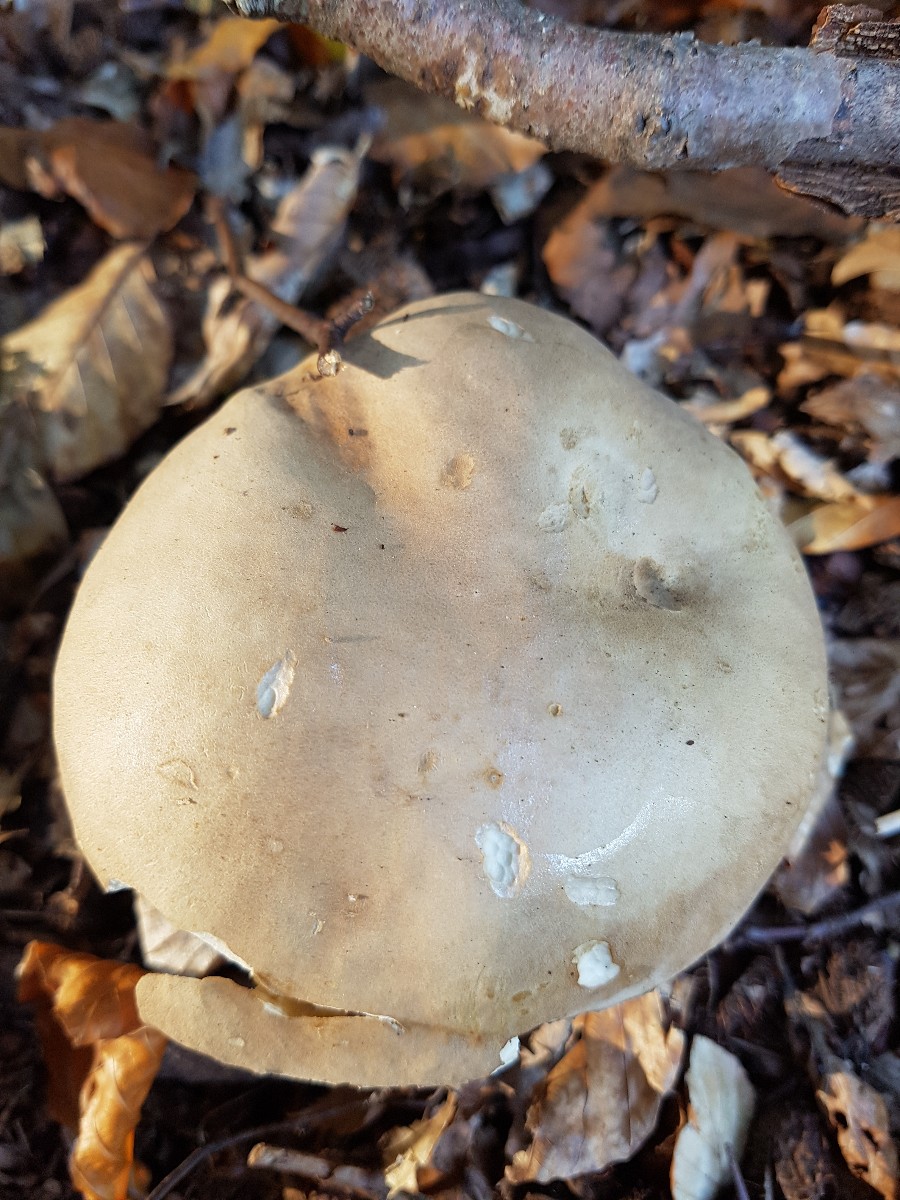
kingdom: Fungi
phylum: Basidiomycota
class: Agaricomycetes
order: Boletales
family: Boletaceae
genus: Boletus
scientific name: Boletus reticulatus
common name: sommer-rørhat
